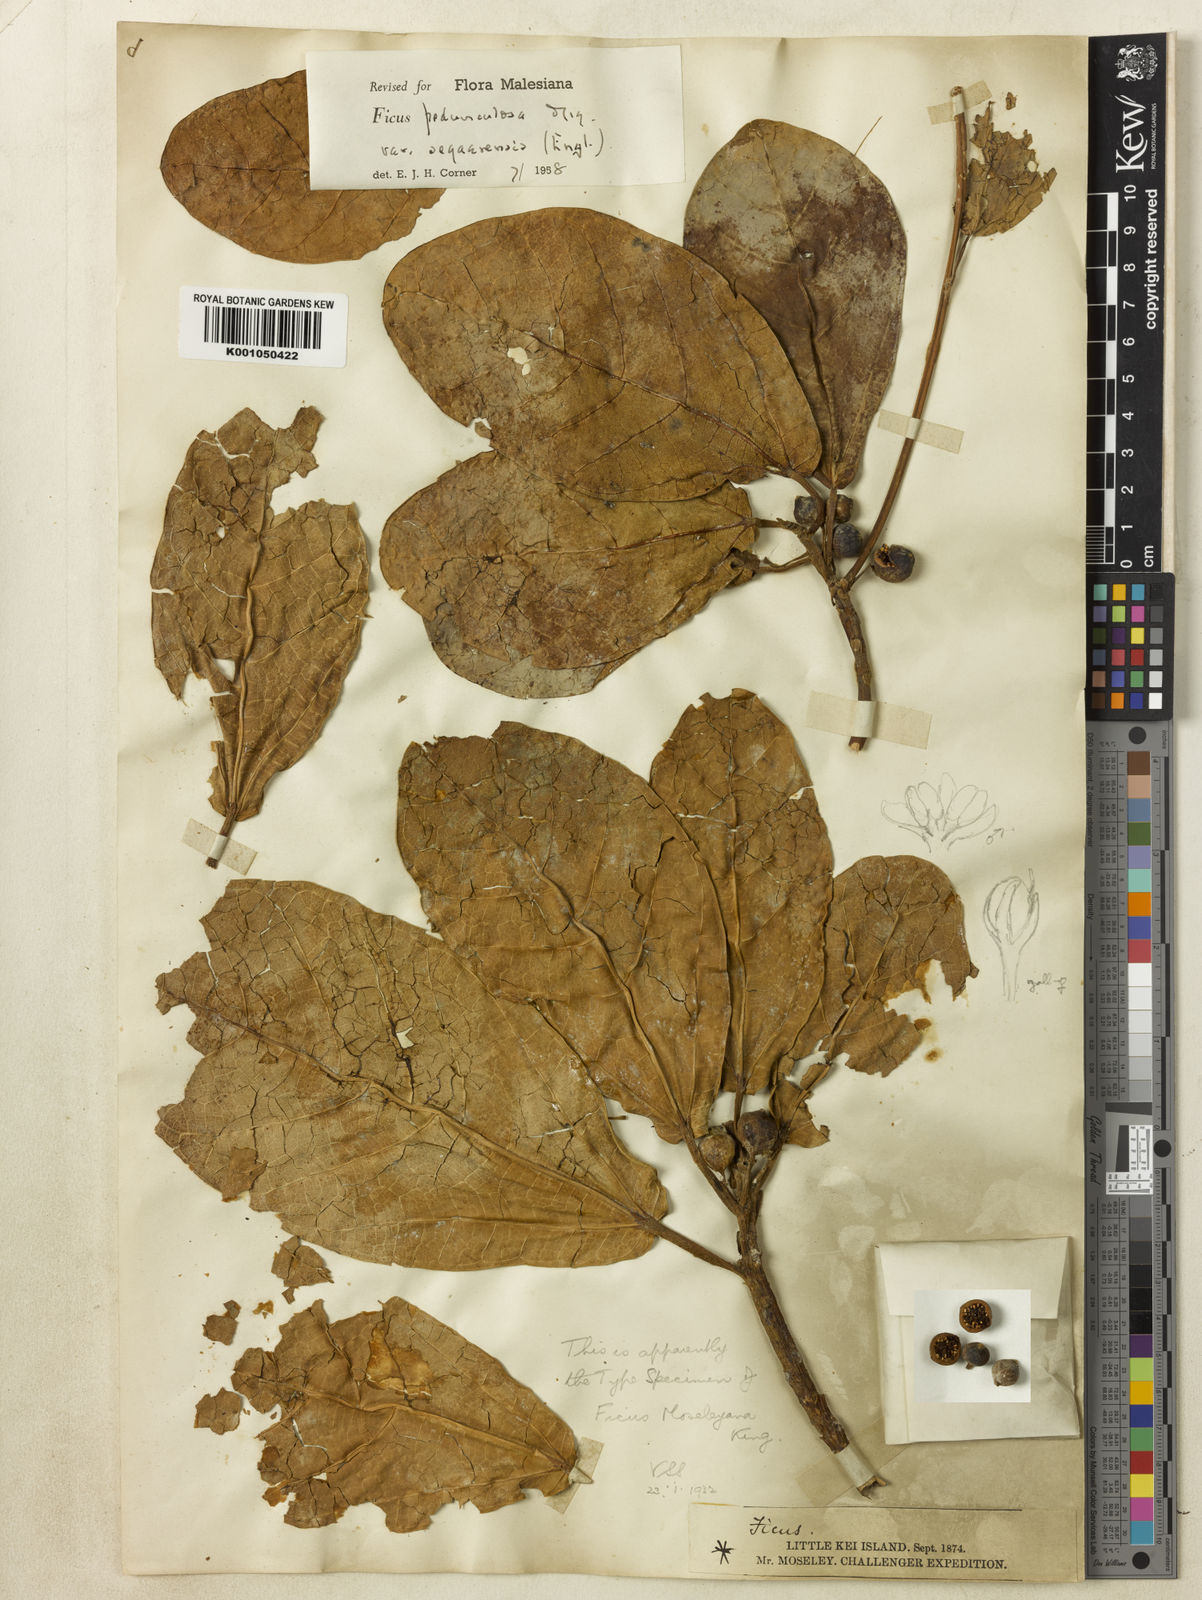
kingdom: Plantae
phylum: Tracheophyta
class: Magnoliopsida
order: Rosales
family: Moraceae
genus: Ficus
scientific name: Ficus pedunculosa
